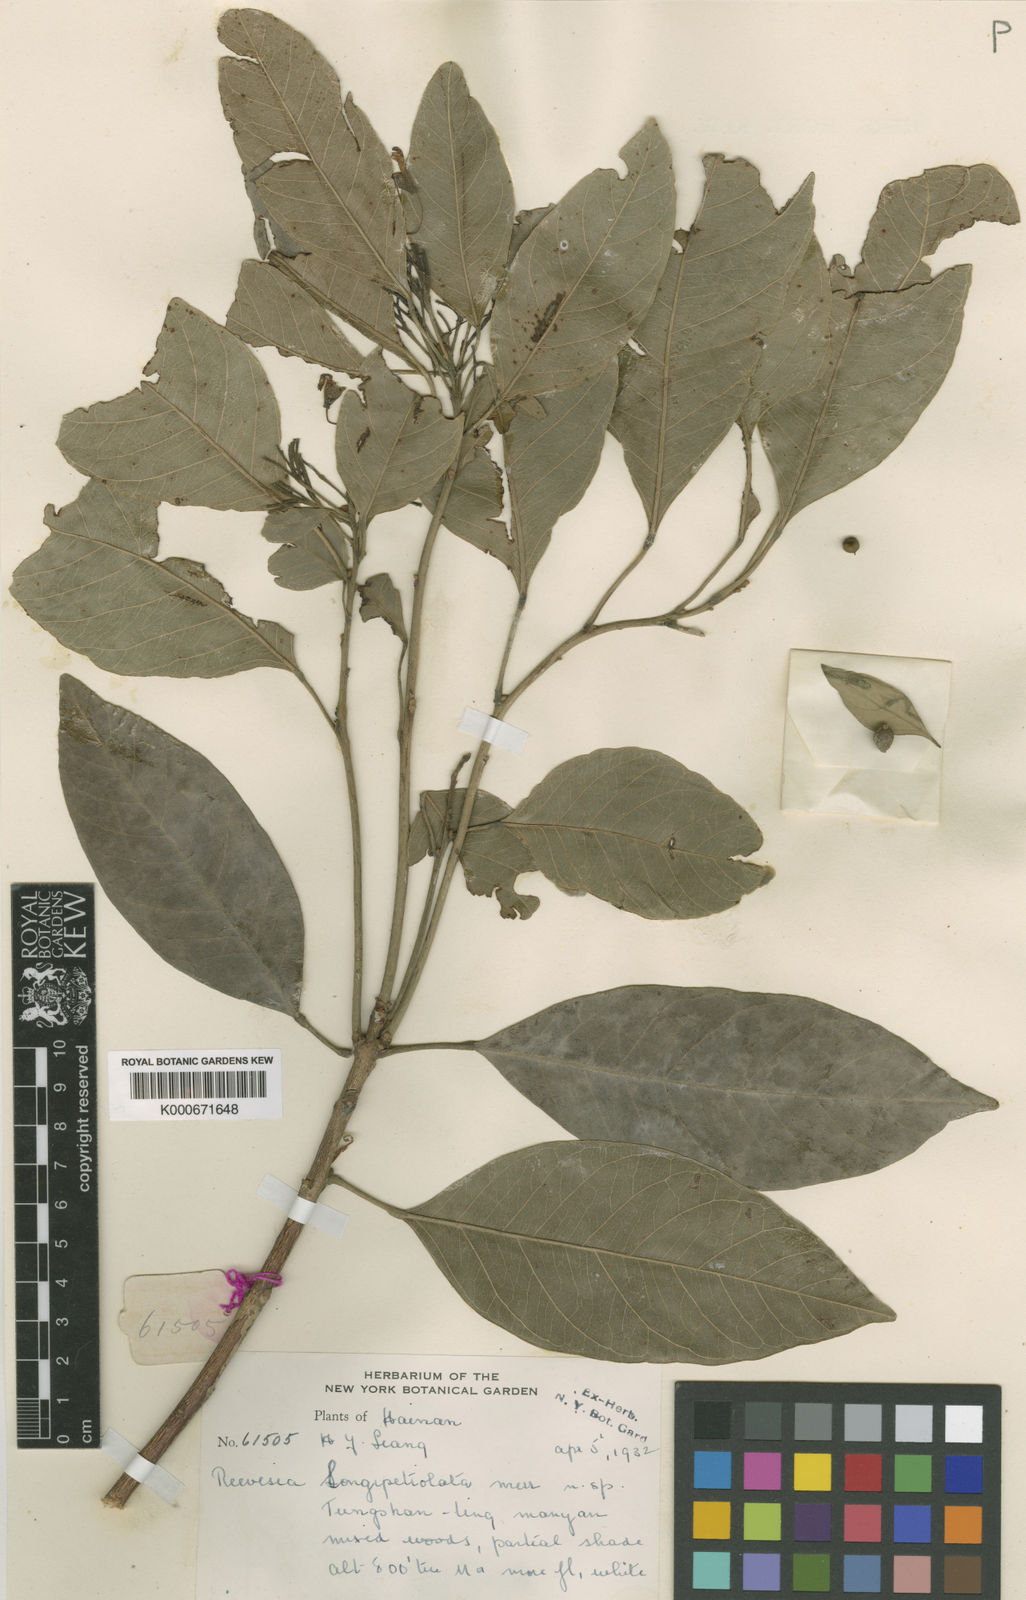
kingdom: Plantae
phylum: Tracheophyta
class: Magnoliopsida
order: Malvales
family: Malvaceae
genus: Reevesia
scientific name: Reevesia thyrsoidea
